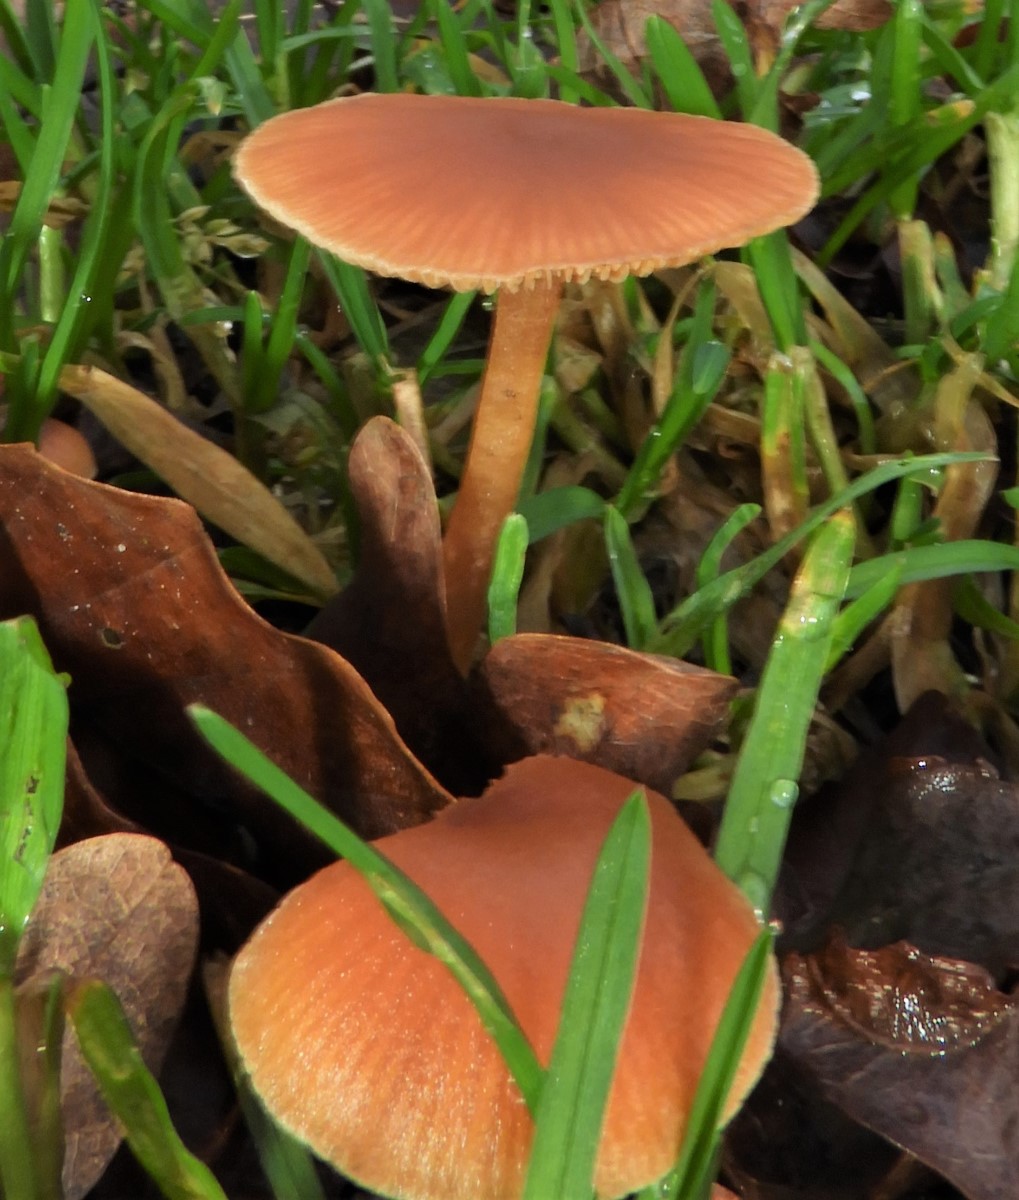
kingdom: Fungi
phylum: Basidiomycota
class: Agaricomycetes
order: Agaricales
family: Tubariaceae
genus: Tubaria
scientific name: Tubaria furfuracea
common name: kliddet fnughat
